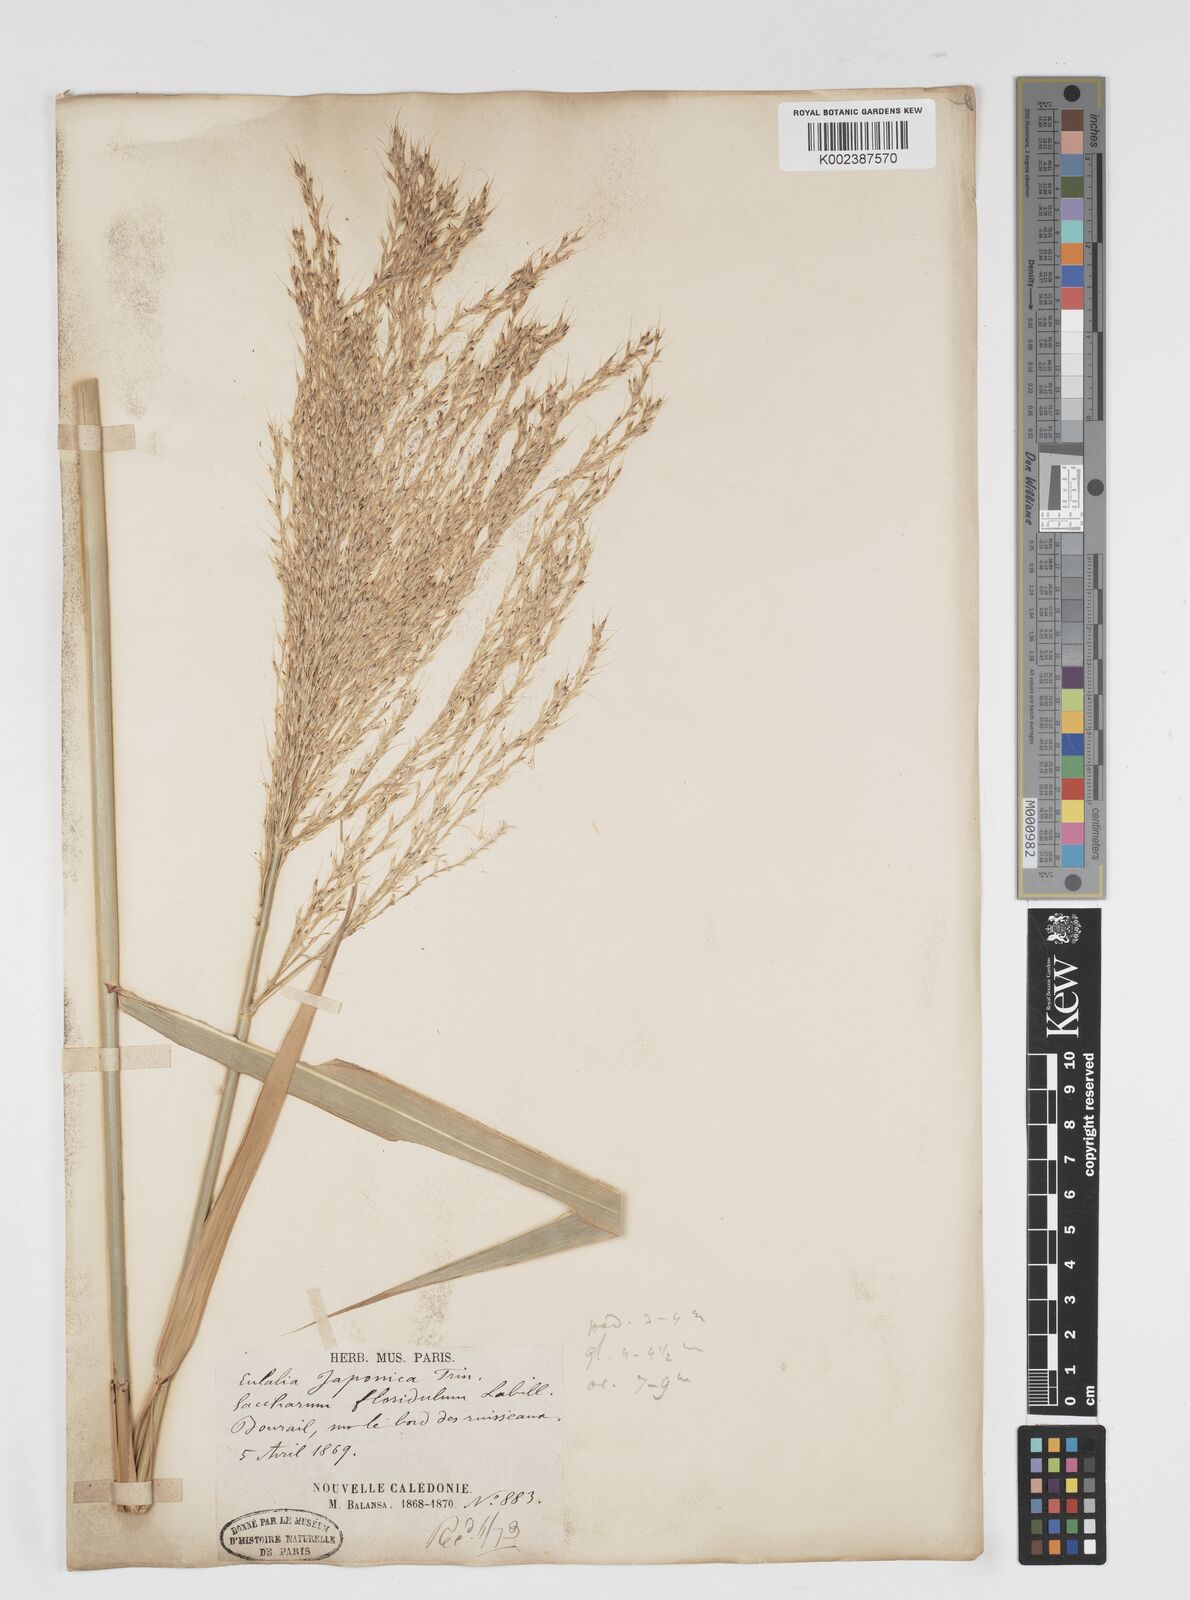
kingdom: Plantae
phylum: Tracheophyta
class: Liliopsida
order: Poales
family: Poaceae
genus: Miscanthus
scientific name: Miscanthus floridulus
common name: Pacific island silvergrass
